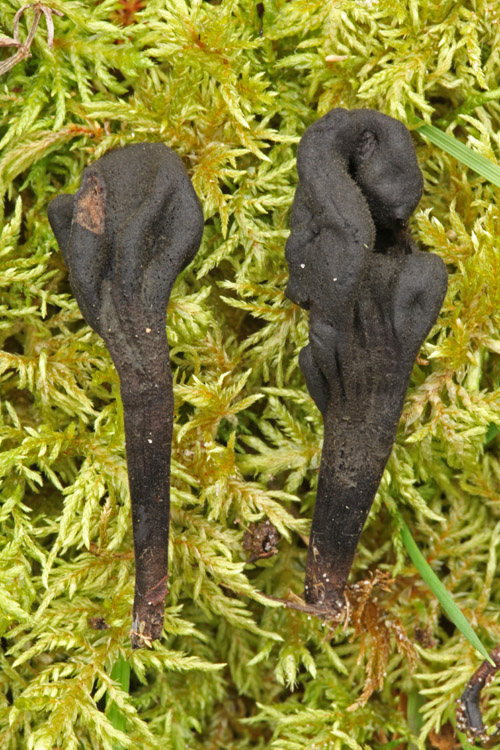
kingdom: Fungi
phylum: Ascomycota
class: Geoglossomycetes
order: Geoglossales
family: Geoglossaceae
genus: Trichoglossum
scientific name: Trichoglossum hirsutum
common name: håret jordtunge
